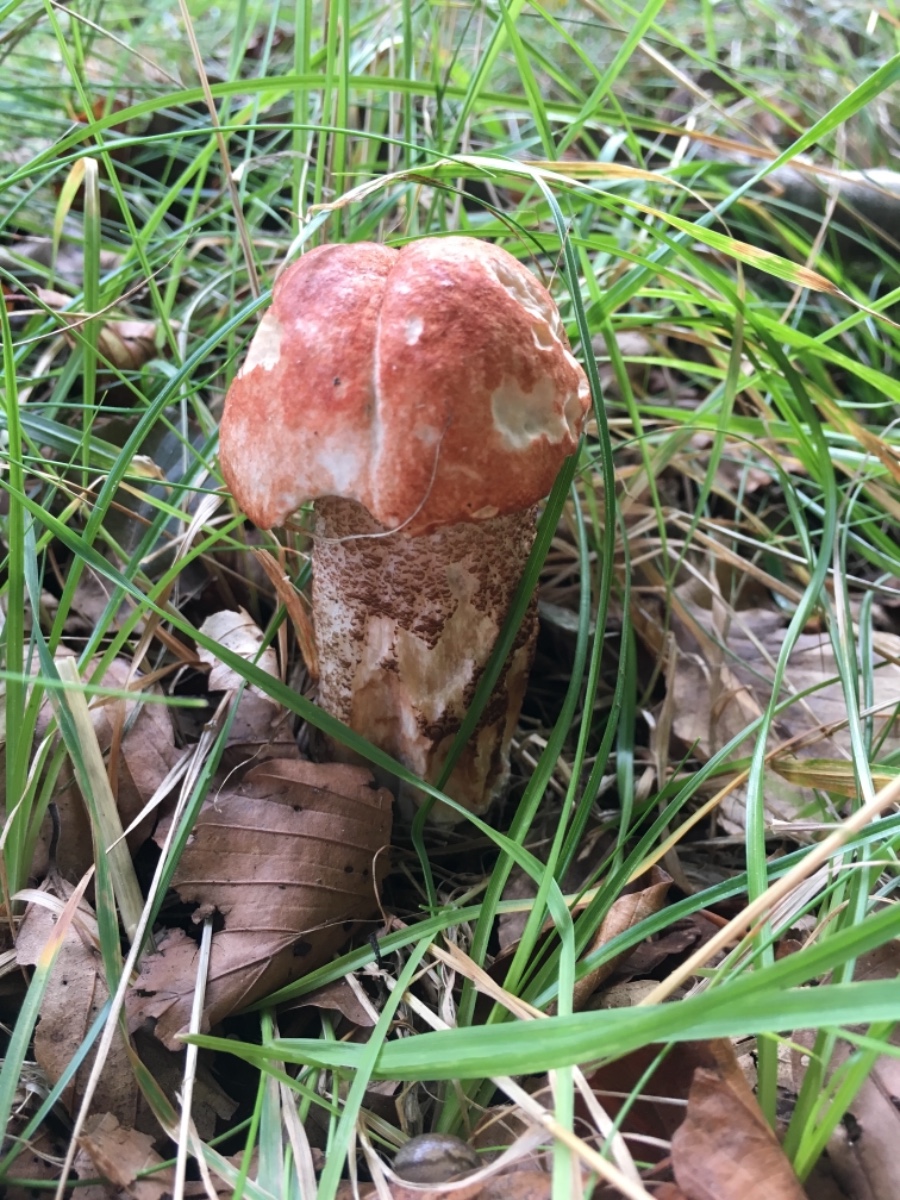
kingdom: Fungi
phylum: Basidiomycota
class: Agaricomycetes
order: Boletales
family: Boletaceae
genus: Leccinum
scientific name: Leccinum versipelle
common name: orange skælrørhat
